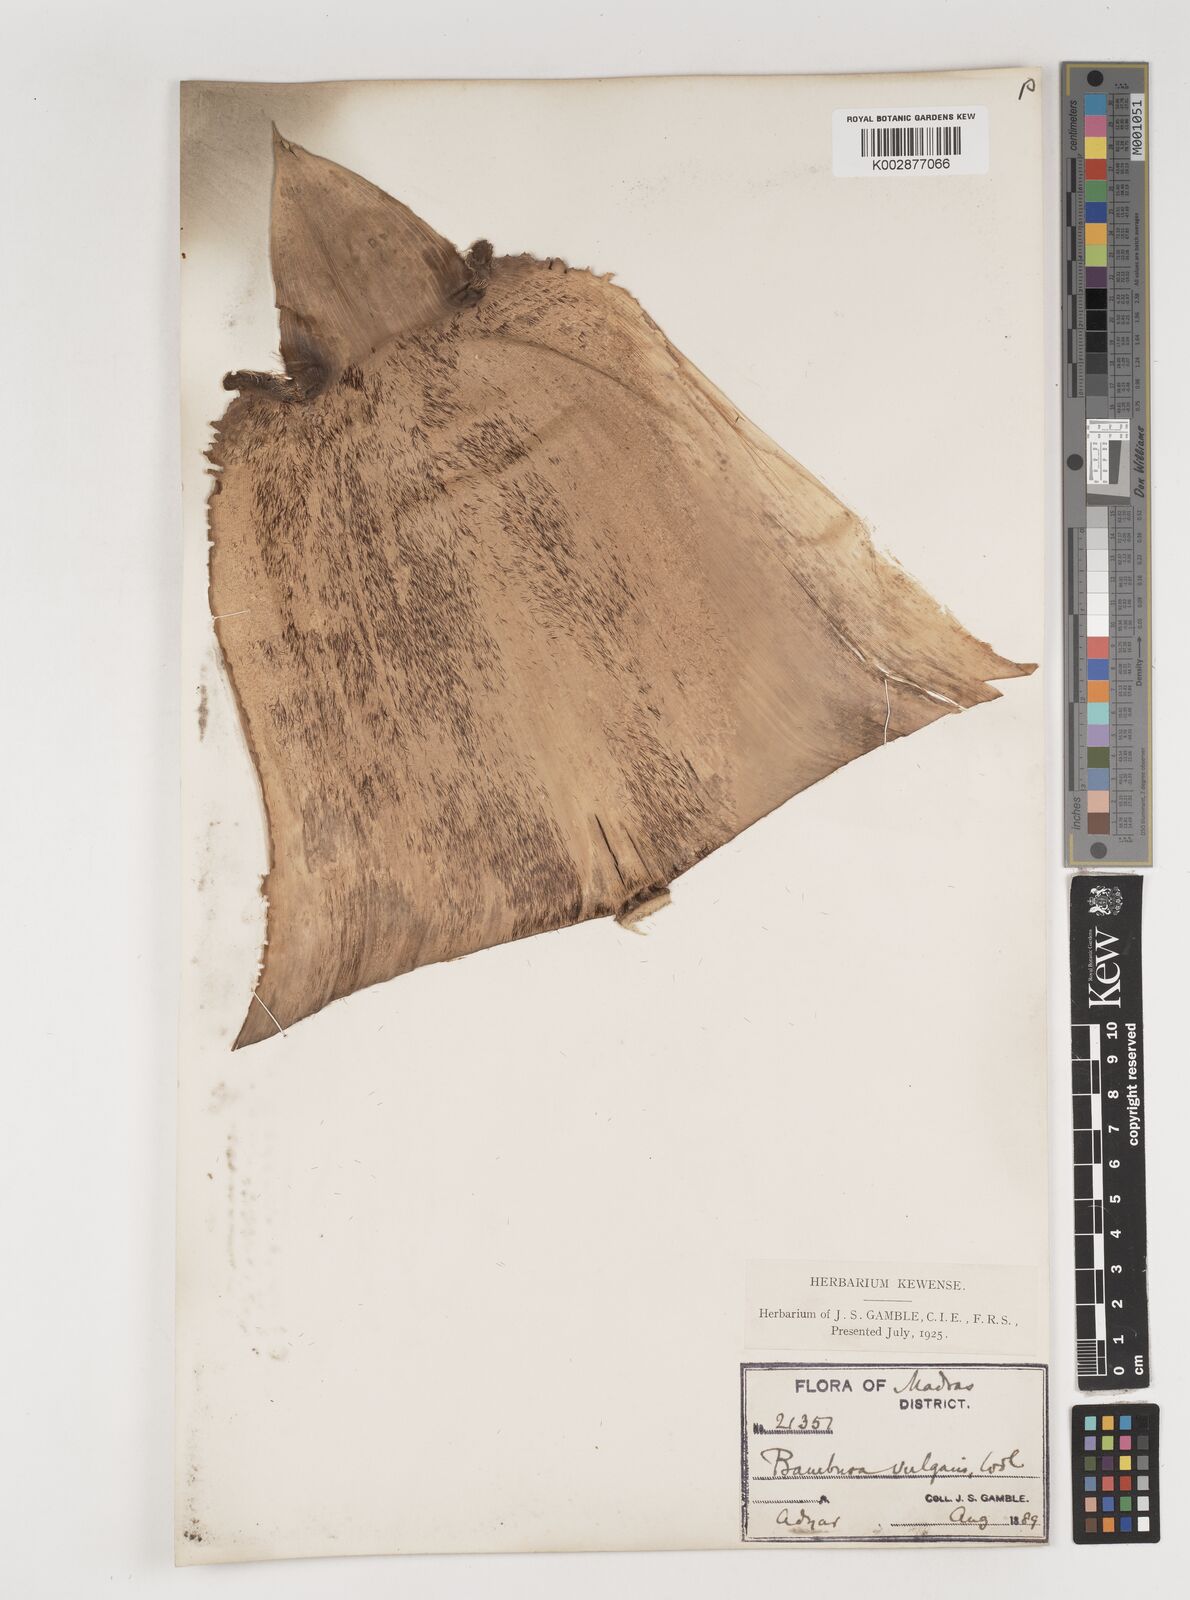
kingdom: Plantae
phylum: Tracheophyta
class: Liliopsida
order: Poales
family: Poaceae
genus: Bambusa
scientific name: Bambusa vulgaris
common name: Common bamboo
